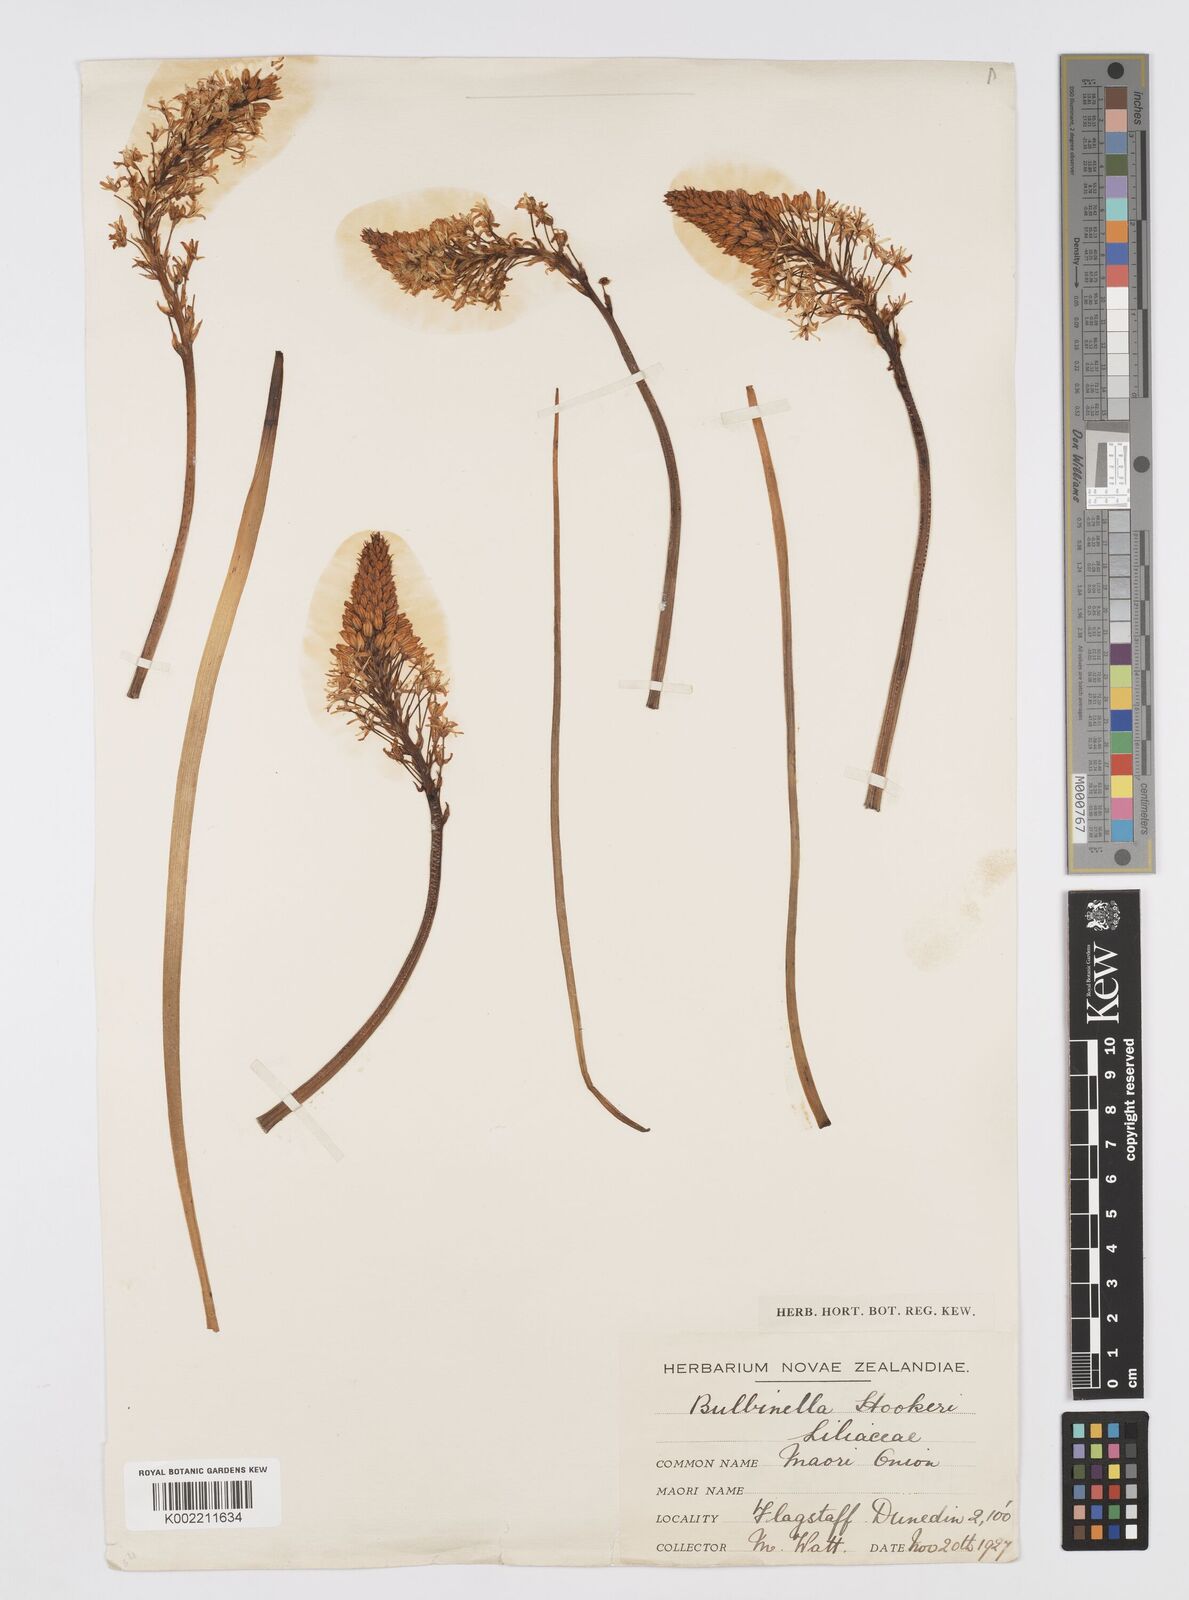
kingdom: Plantae
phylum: Tracheophyta
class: Liliopsida
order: Asparagales
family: Asphodelaceae
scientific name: Asphodelaceae
